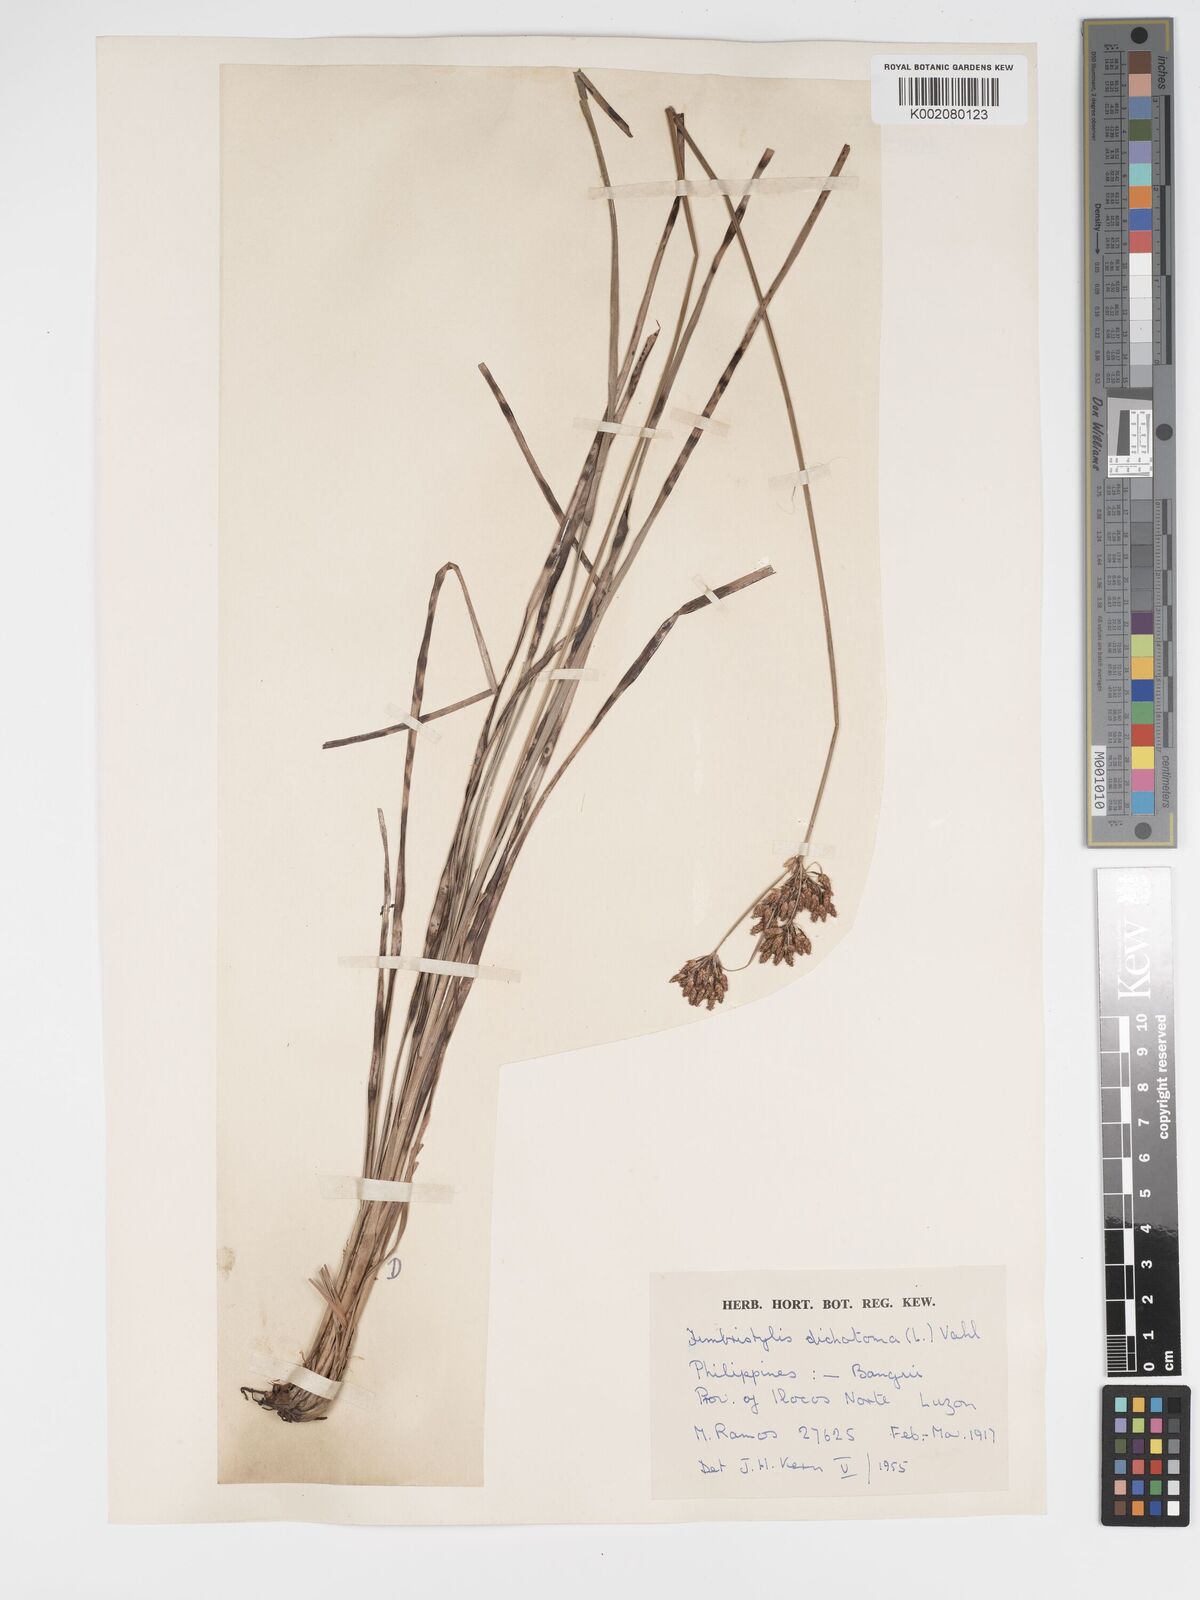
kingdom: Plantae
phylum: Tracheophyta
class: Liliopsida
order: Poales
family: Cyperaceae
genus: Fimbristylis
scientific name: Fimbristylis dichotoma
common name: Forked fimbry
